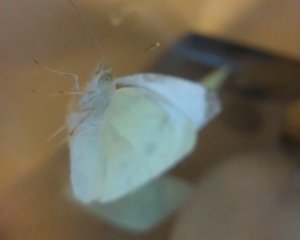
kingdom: Animalia
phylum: Arthropoda
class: Insecta
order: Lepidoptera
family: Pieridae
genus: Pieris
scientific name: Pieris rapae
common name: Cabbage White
